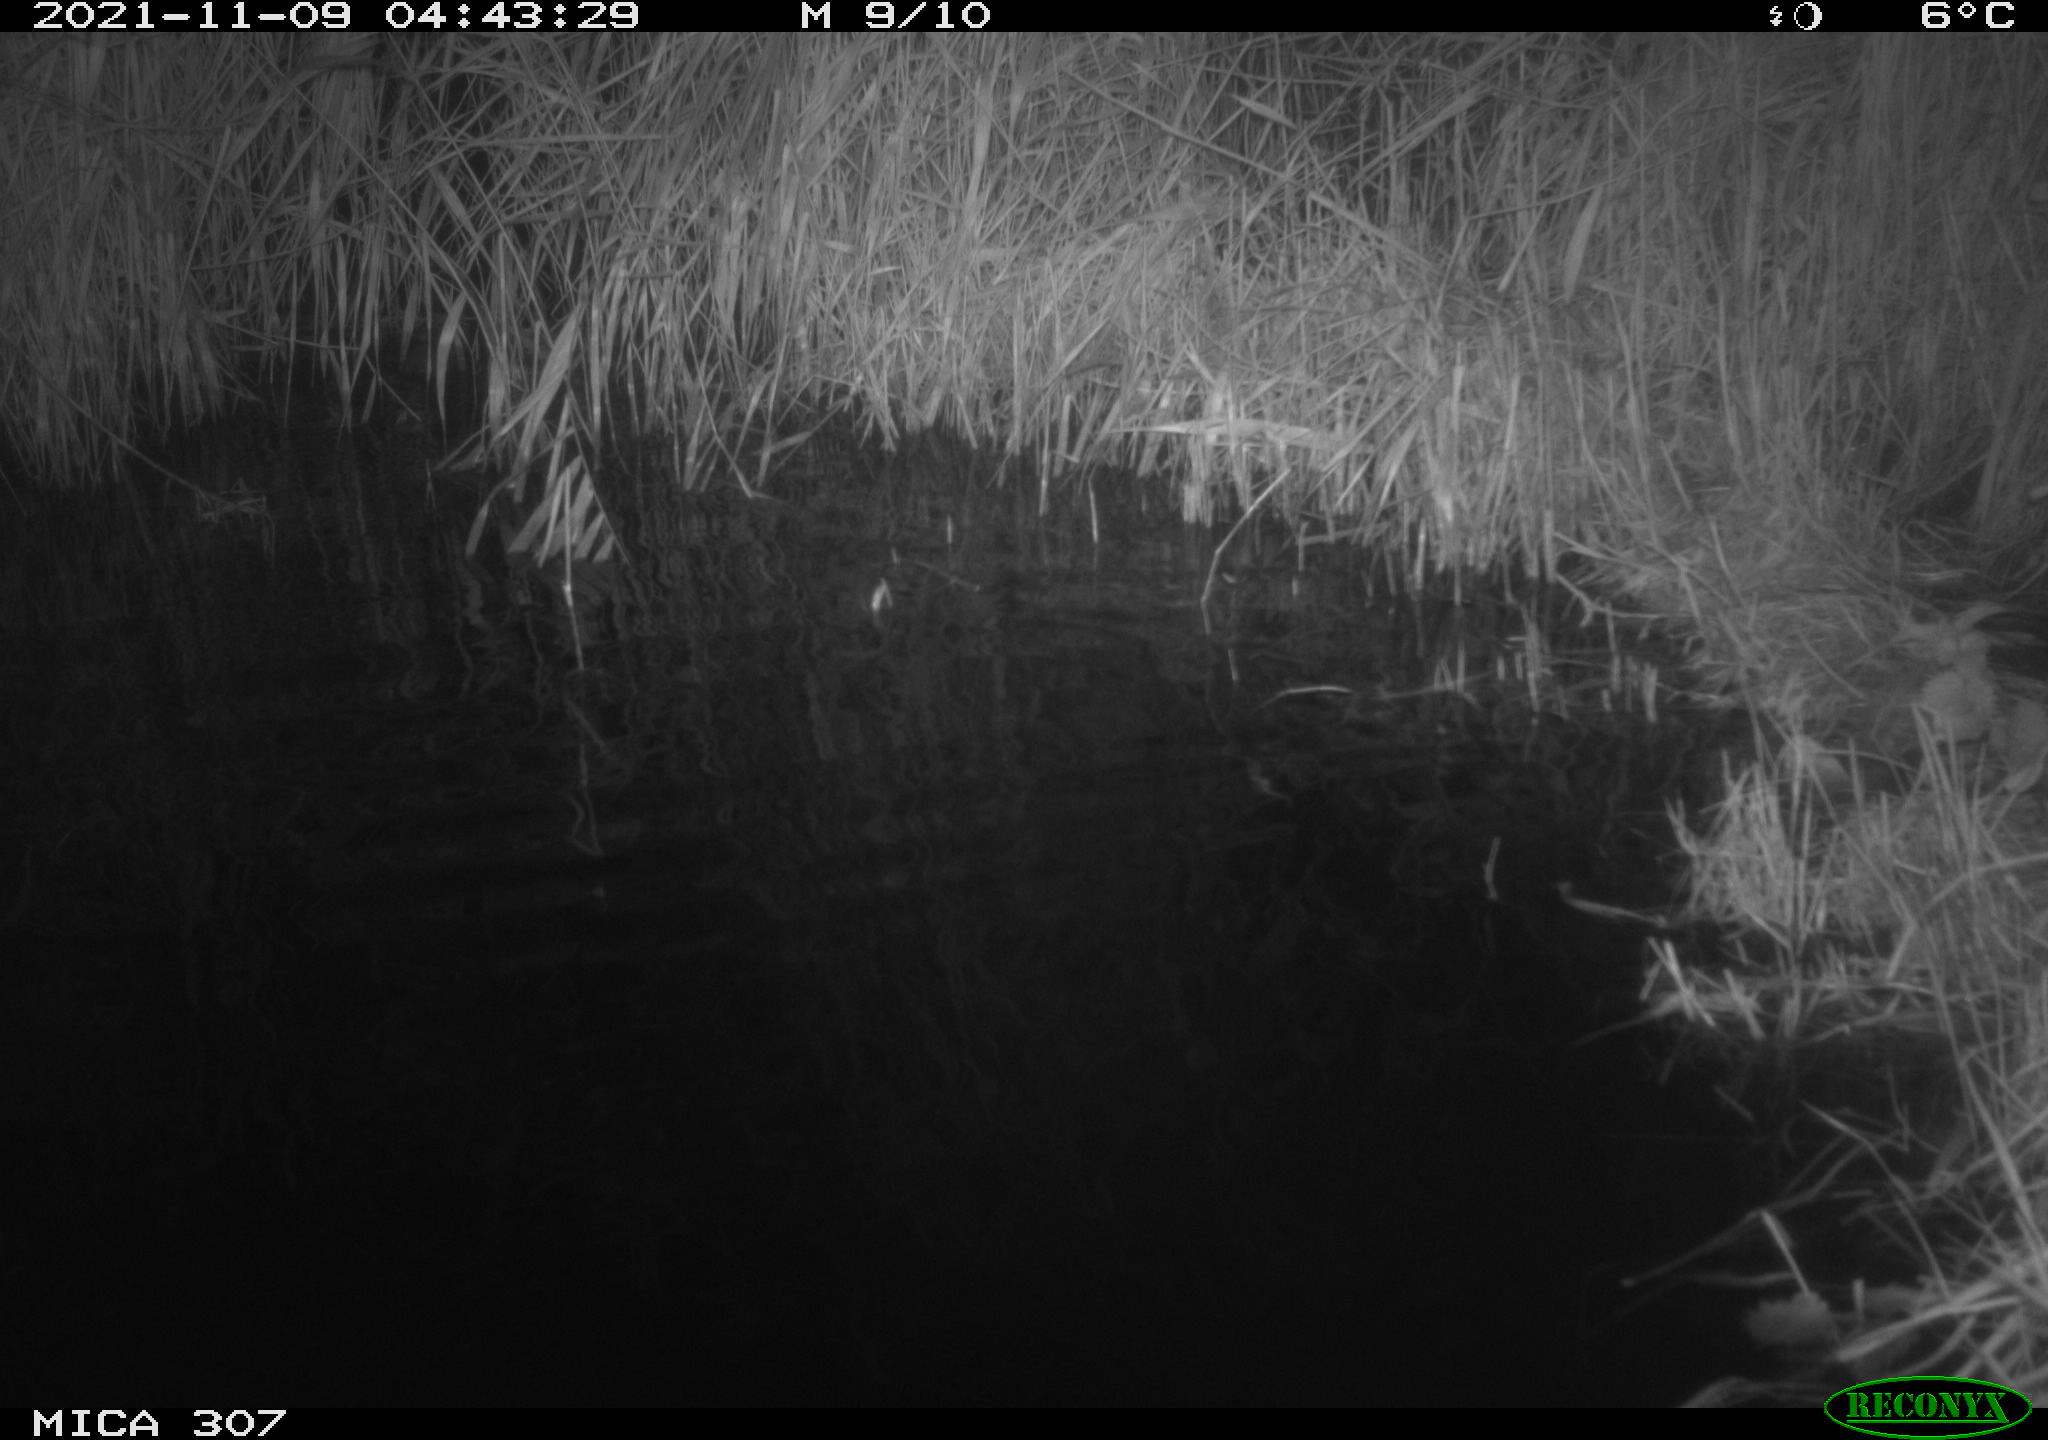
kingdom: Animalia
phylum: Chordata
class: Mammalia
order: Rodentia
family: Muridae
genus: Rattus
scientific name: Rattus norvegicus
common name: Brown rat
